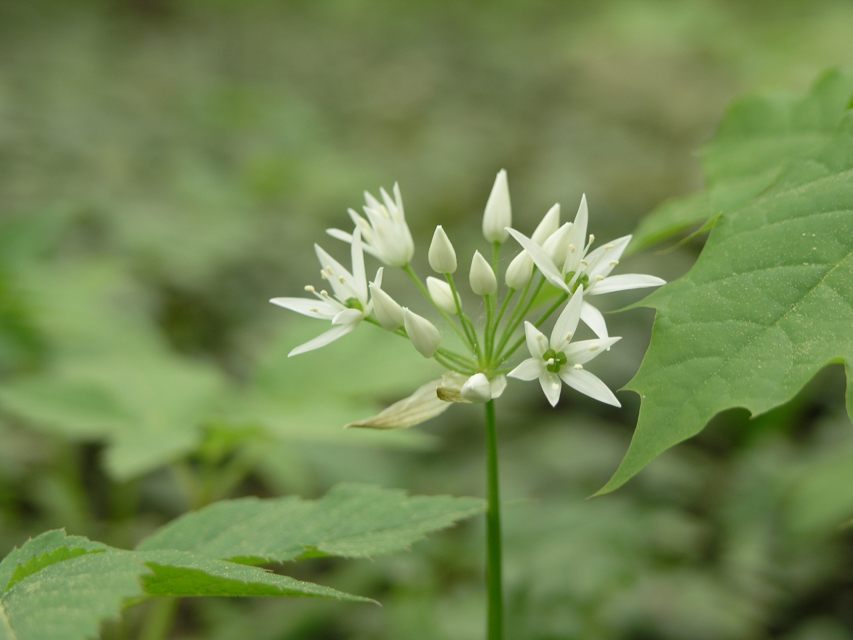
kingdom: Plantae
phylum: Tracheophyta
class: Liliopsida
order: Asparagales
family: Amaryllidaceae
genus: Allium
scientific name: Allium ursinum
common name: Ramsons
